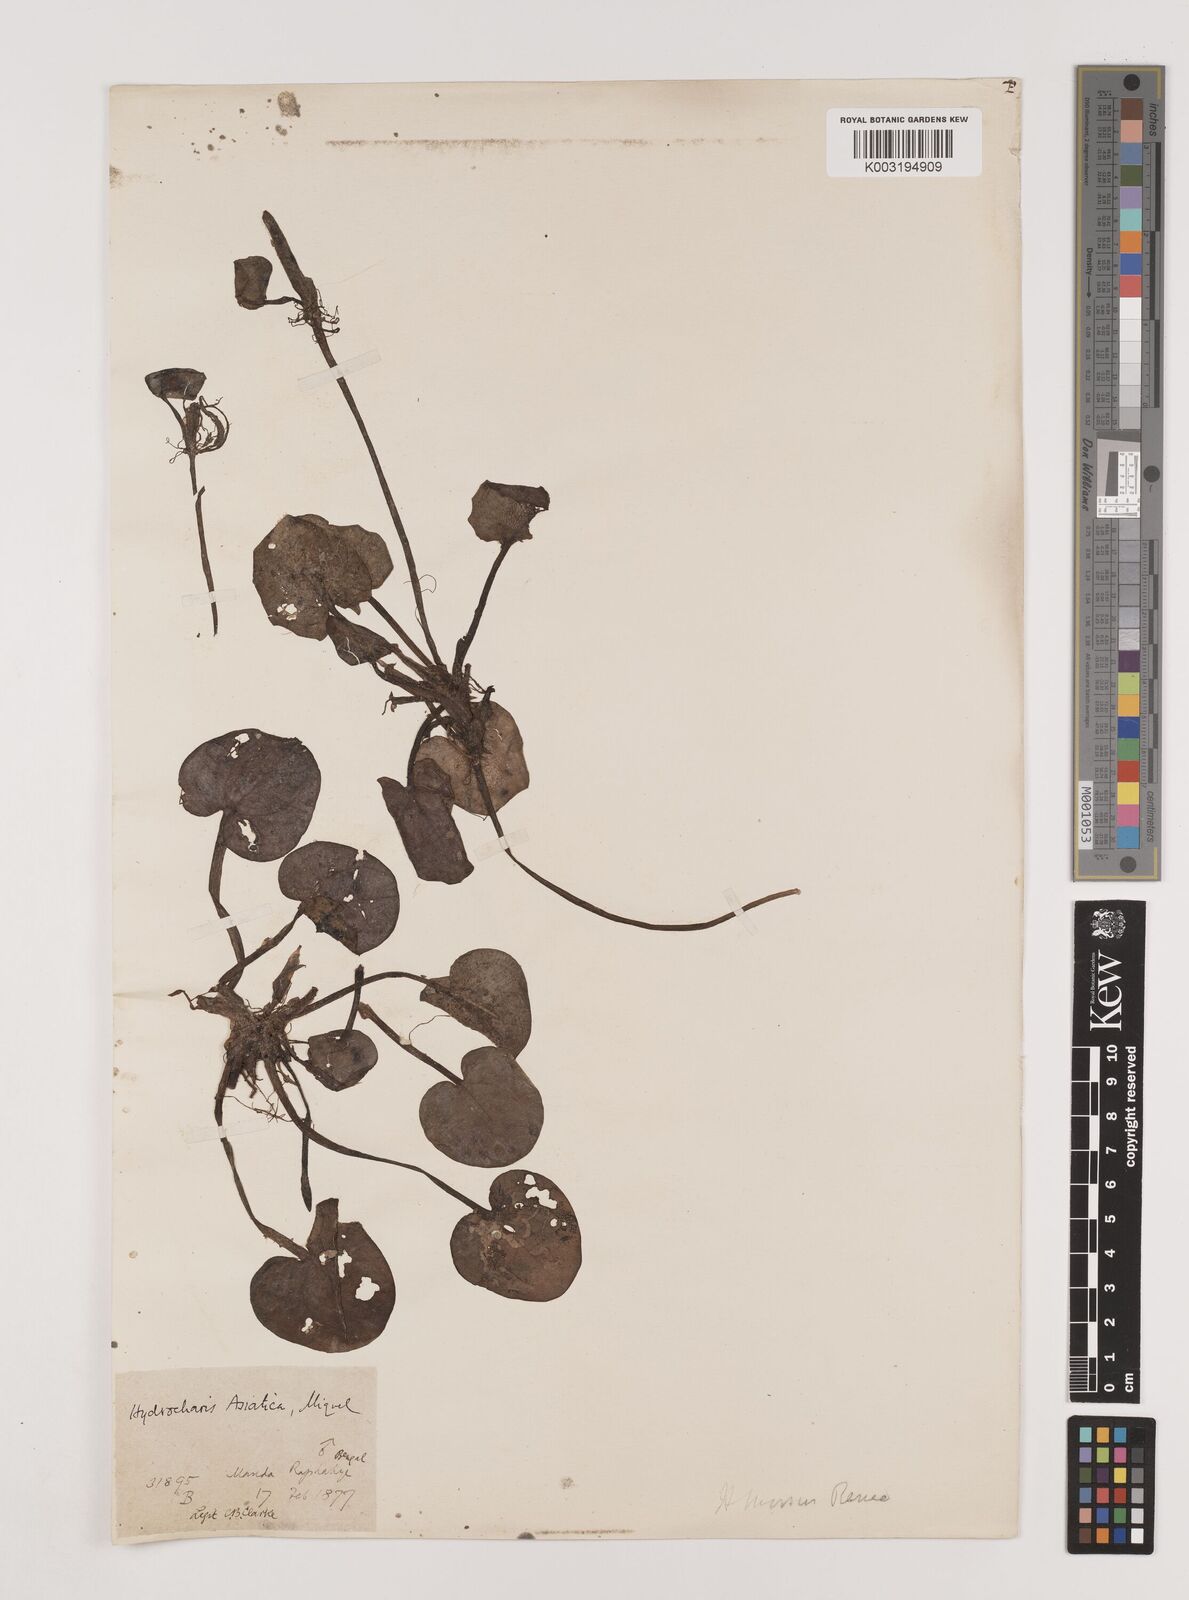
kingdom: Plantae
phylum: Tracheophyta
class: Liliopsida
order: Alismatales
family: Hydrocharitaceae
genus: Hydrocharis
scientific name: Hydrocharis dubia
